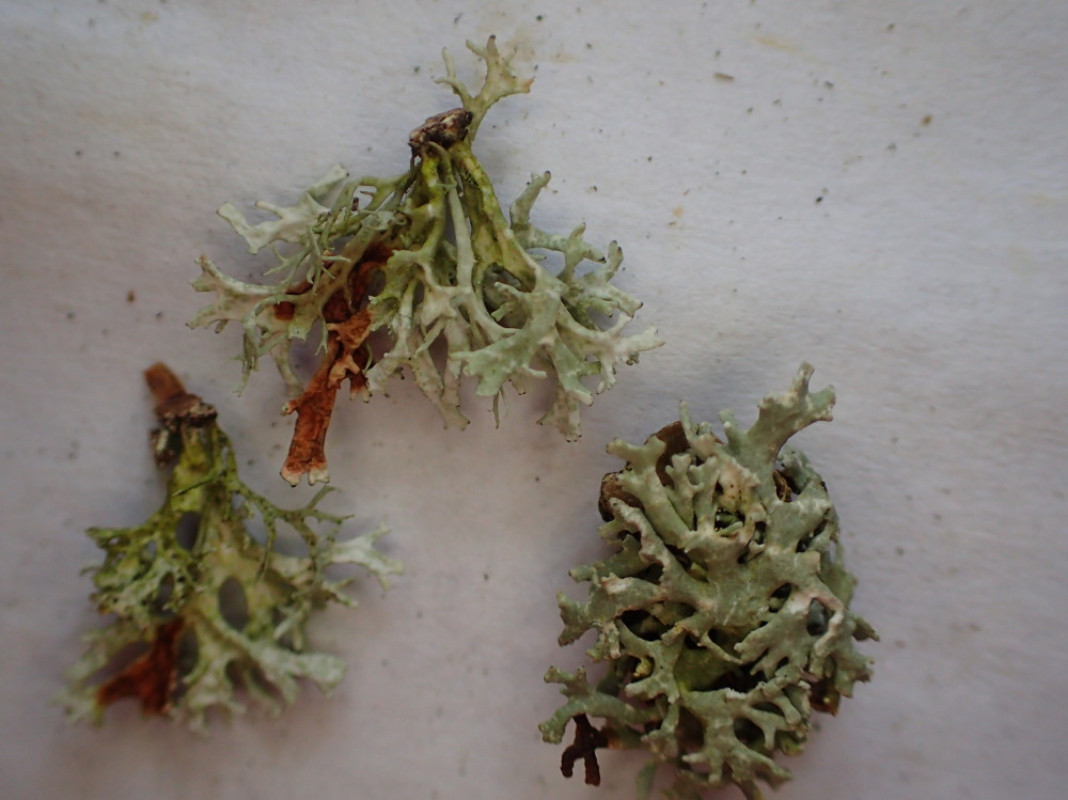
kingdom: Fungi
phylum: Ascomycota
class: Lecanoromycetes
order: Lecanorales
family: Parmeliaceae
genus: Evernia
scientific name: Evernia prunastri
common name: almindelig slåenlav
